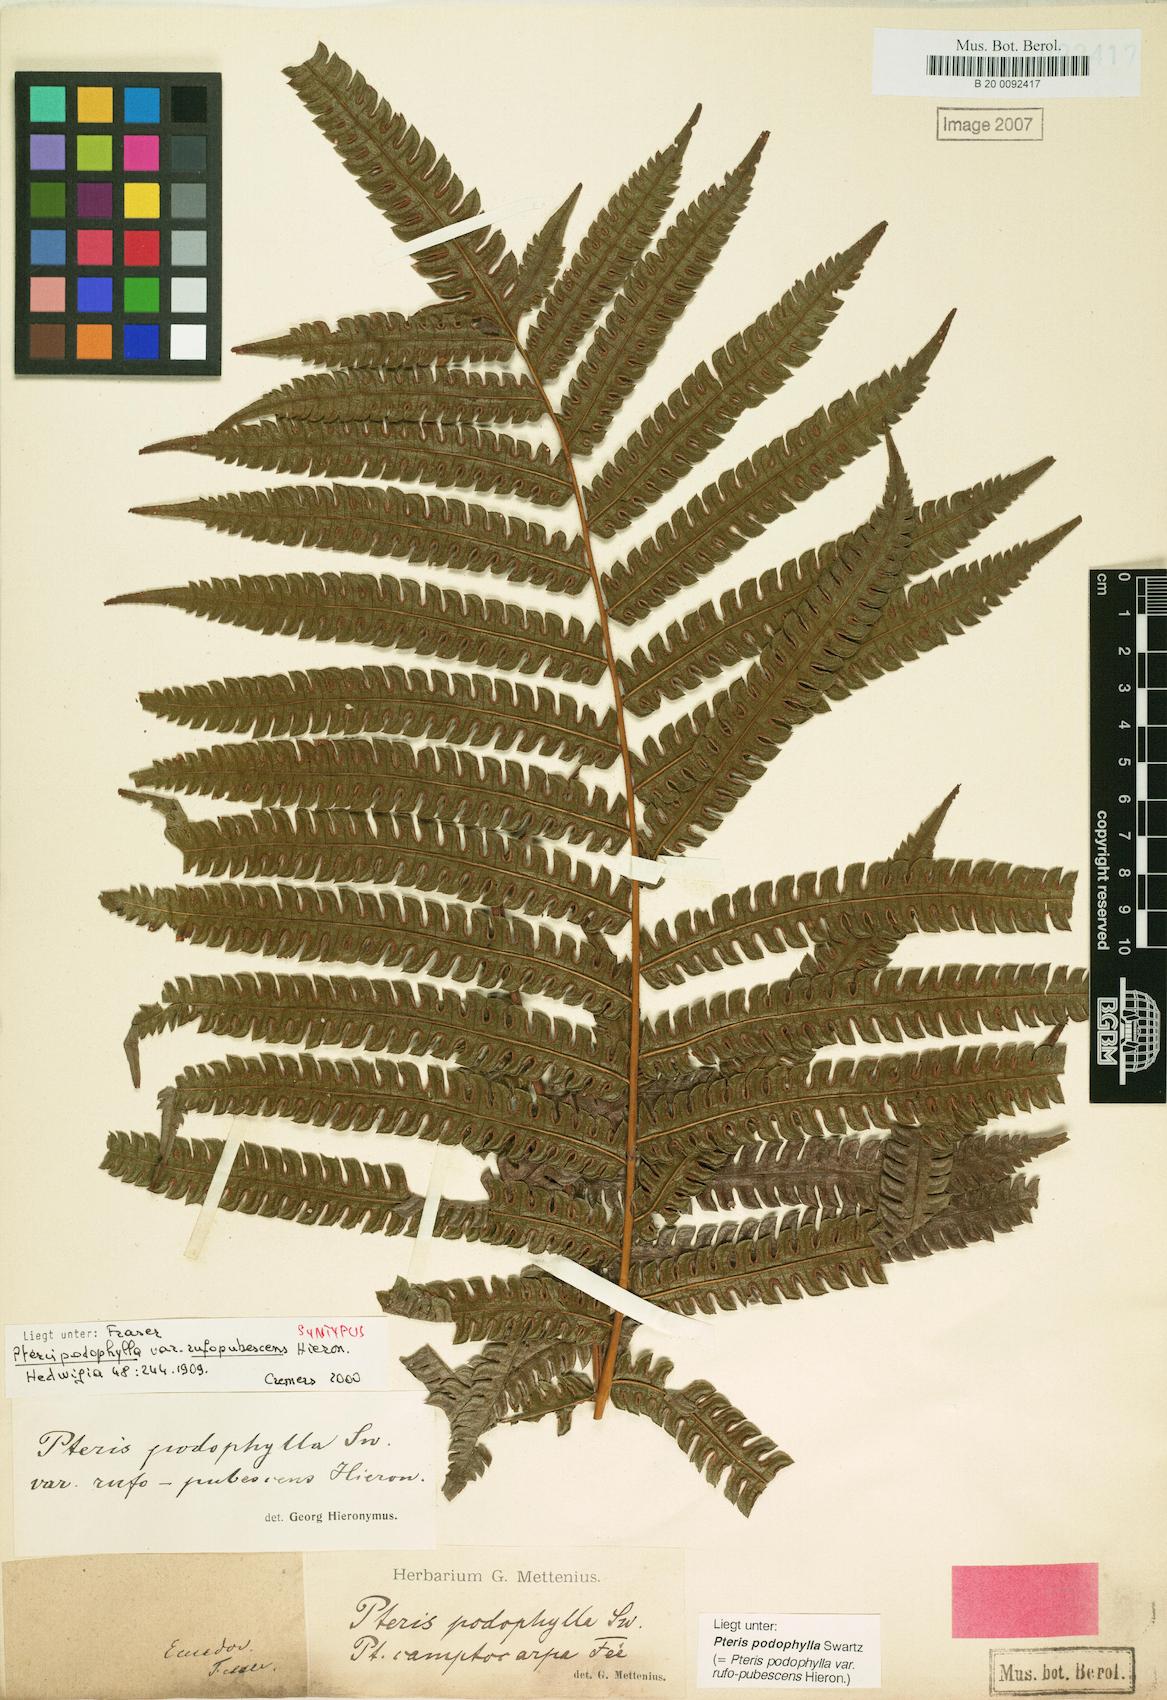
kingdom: Plantae
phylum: Tracheophyta
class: Polypodiopsida
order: Polypodiales
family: Pteridaceae
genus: Pteris
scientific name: Pteris podophylla
